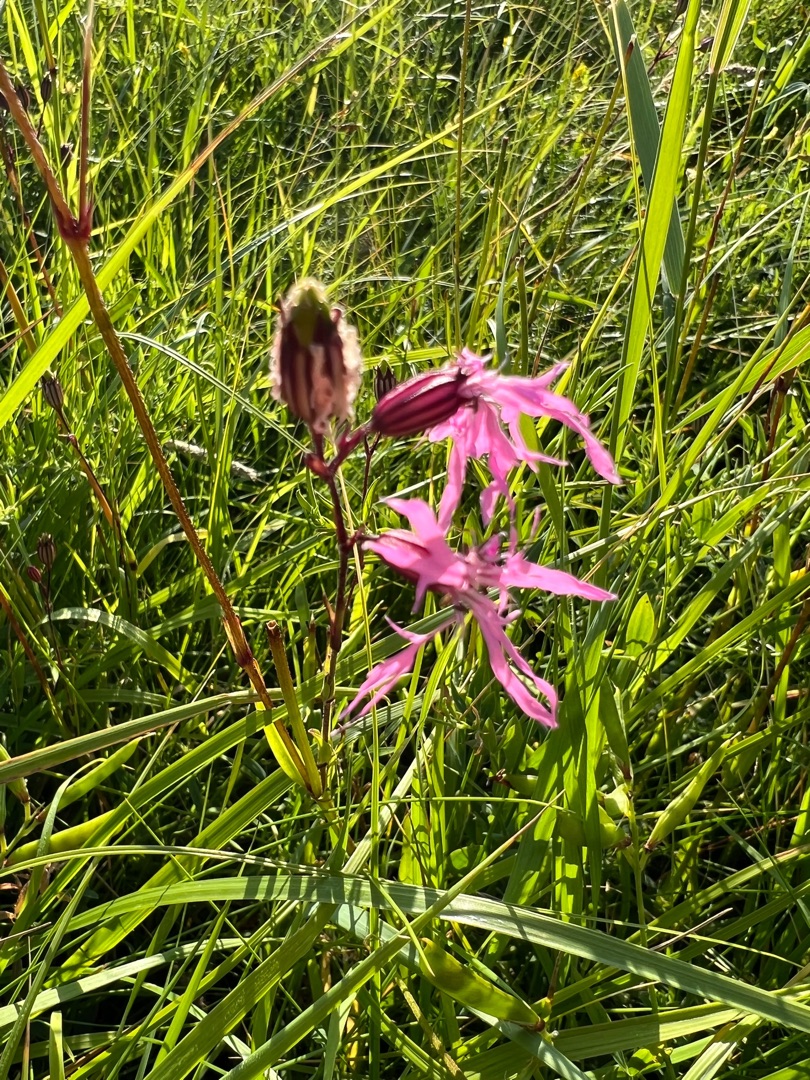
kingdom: Plantae
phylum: Tracheophyta
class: Magnoliopsida
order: Caryophyllales
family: Caryophyllaceae
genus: Silene
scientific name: Silene flos-cuculi
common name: Trævlekrone
